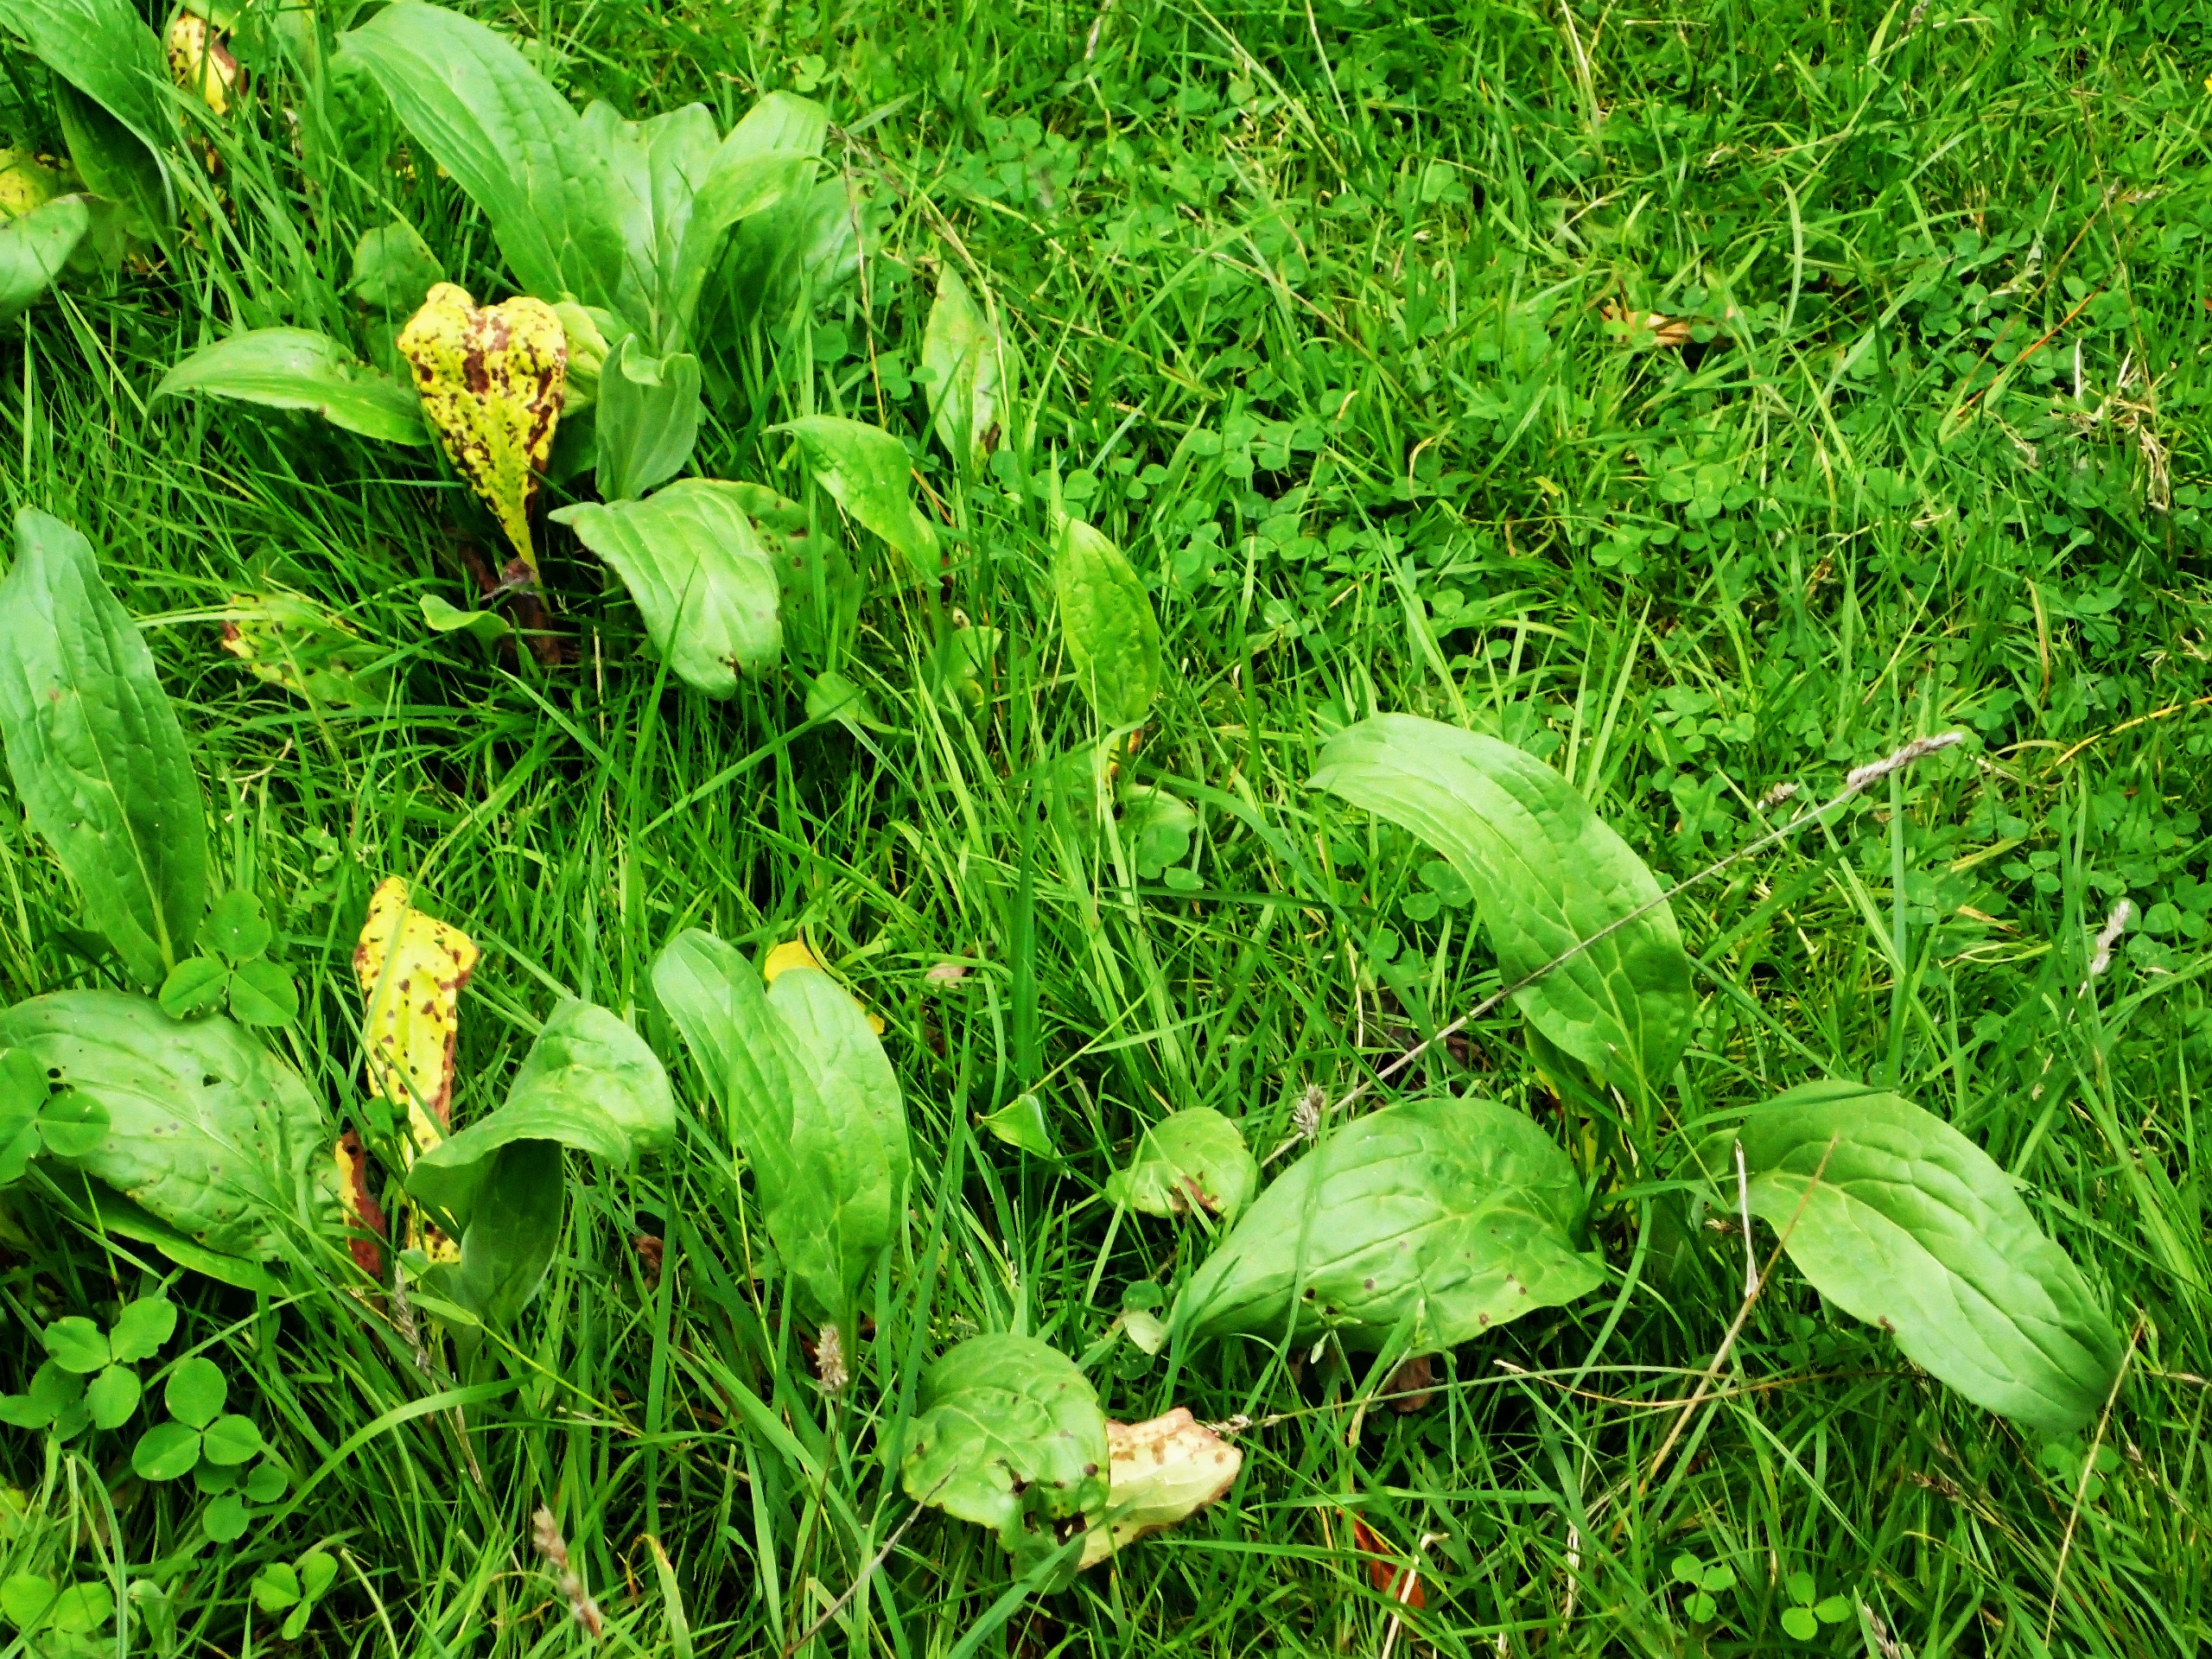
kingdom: Plantae
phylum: Tracheophyta
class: Magnoliopsida
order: Boraginales
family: Boraginaceae
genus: Cynoglossum
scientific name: Cynoglossum officinale
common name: Hundetunge
